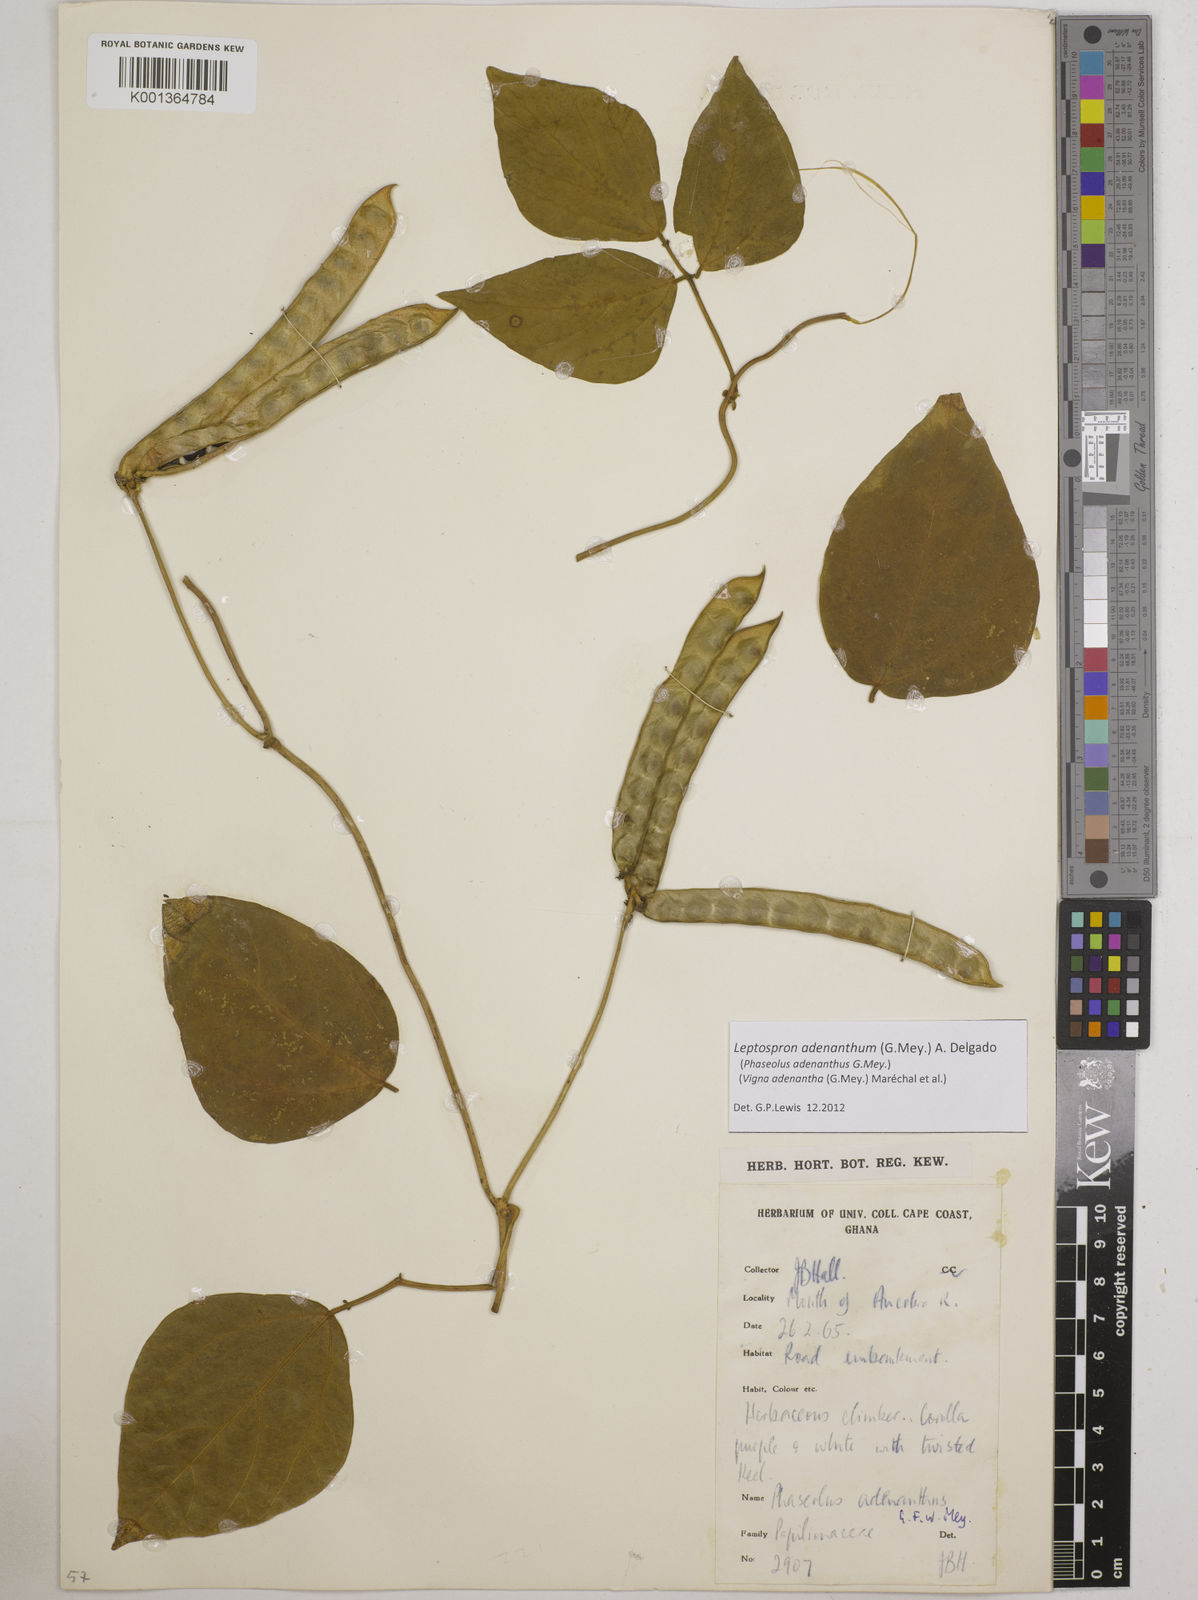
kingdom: Plantae
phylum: Tracheophyta
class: Magnoliopsida
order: Fabales
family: Fabaceae
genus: Leptospron
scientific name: Leptospron adenanthum
